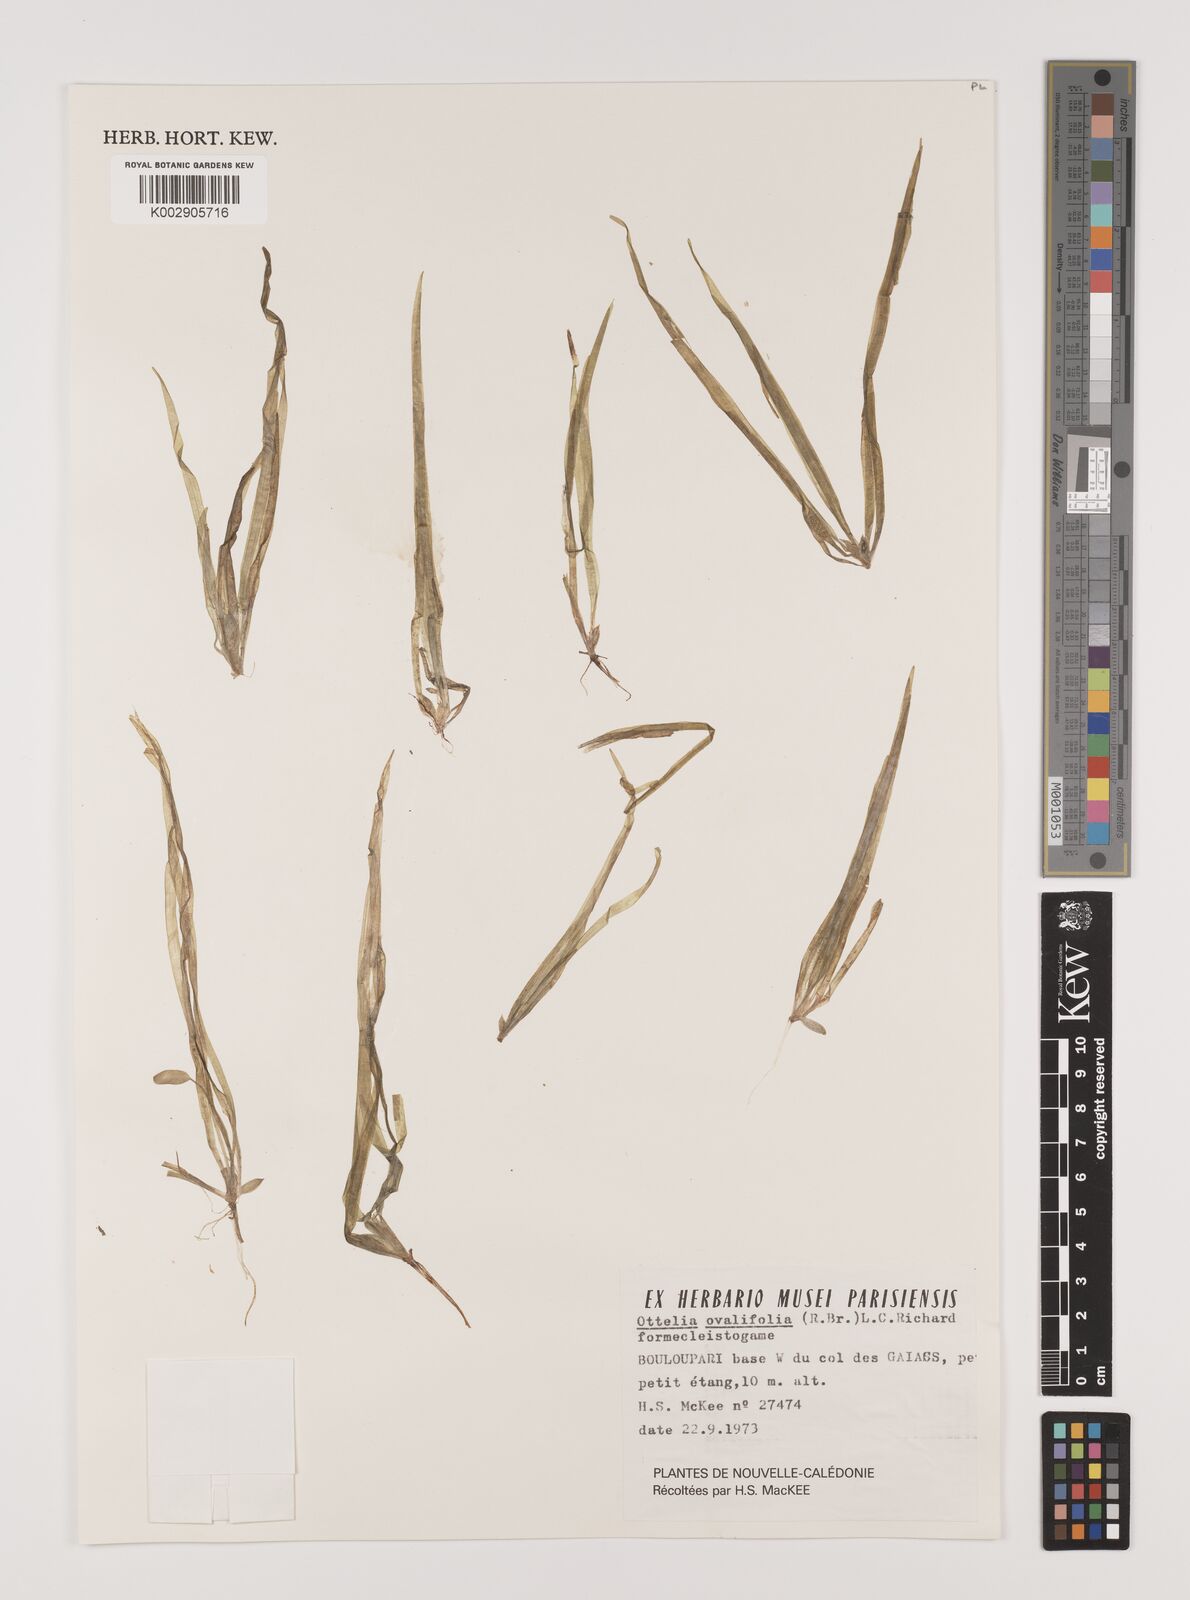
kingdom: Plantae
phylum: Tracheophyta
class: Liliopsida
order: Alismatales
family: Hydrocharitaceae
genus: Ottelia
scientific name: Ottelia ovalifolia
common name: Swamp-lily
